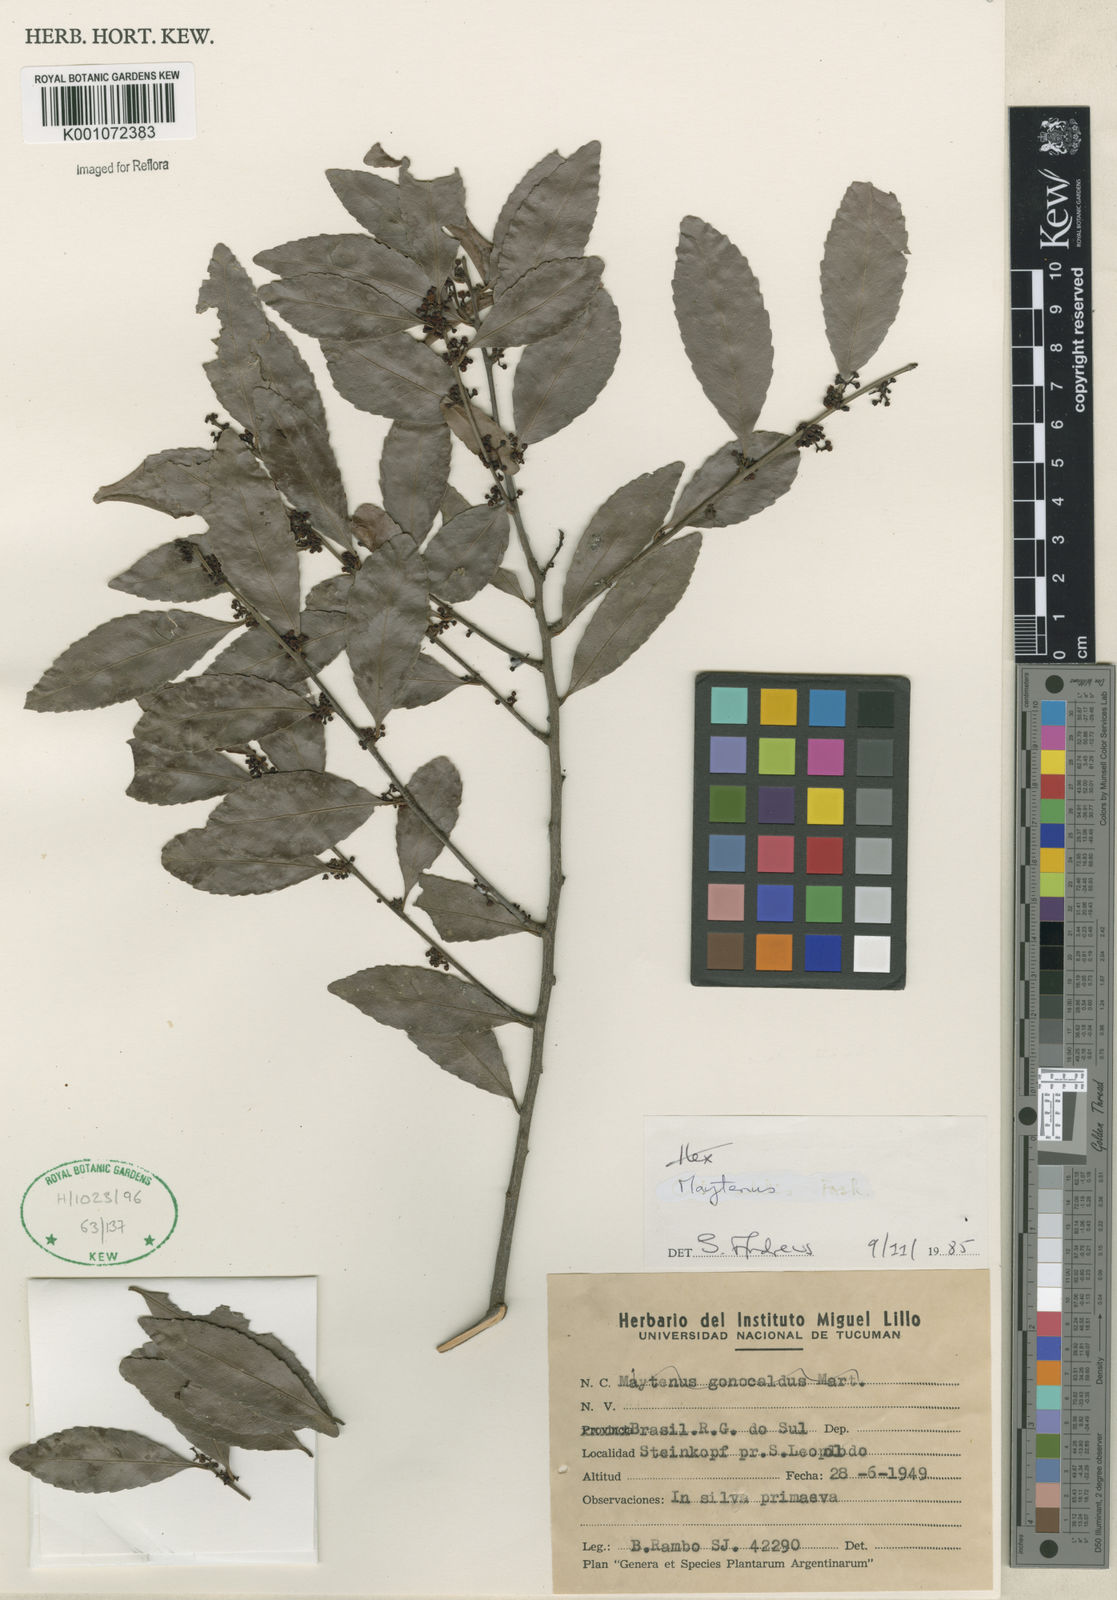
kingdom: Plantae
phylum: Tracheophyta
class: Magnoliopsida
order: Celastrales
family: Celastraceae
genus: Maytenus
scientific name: Maytenus
